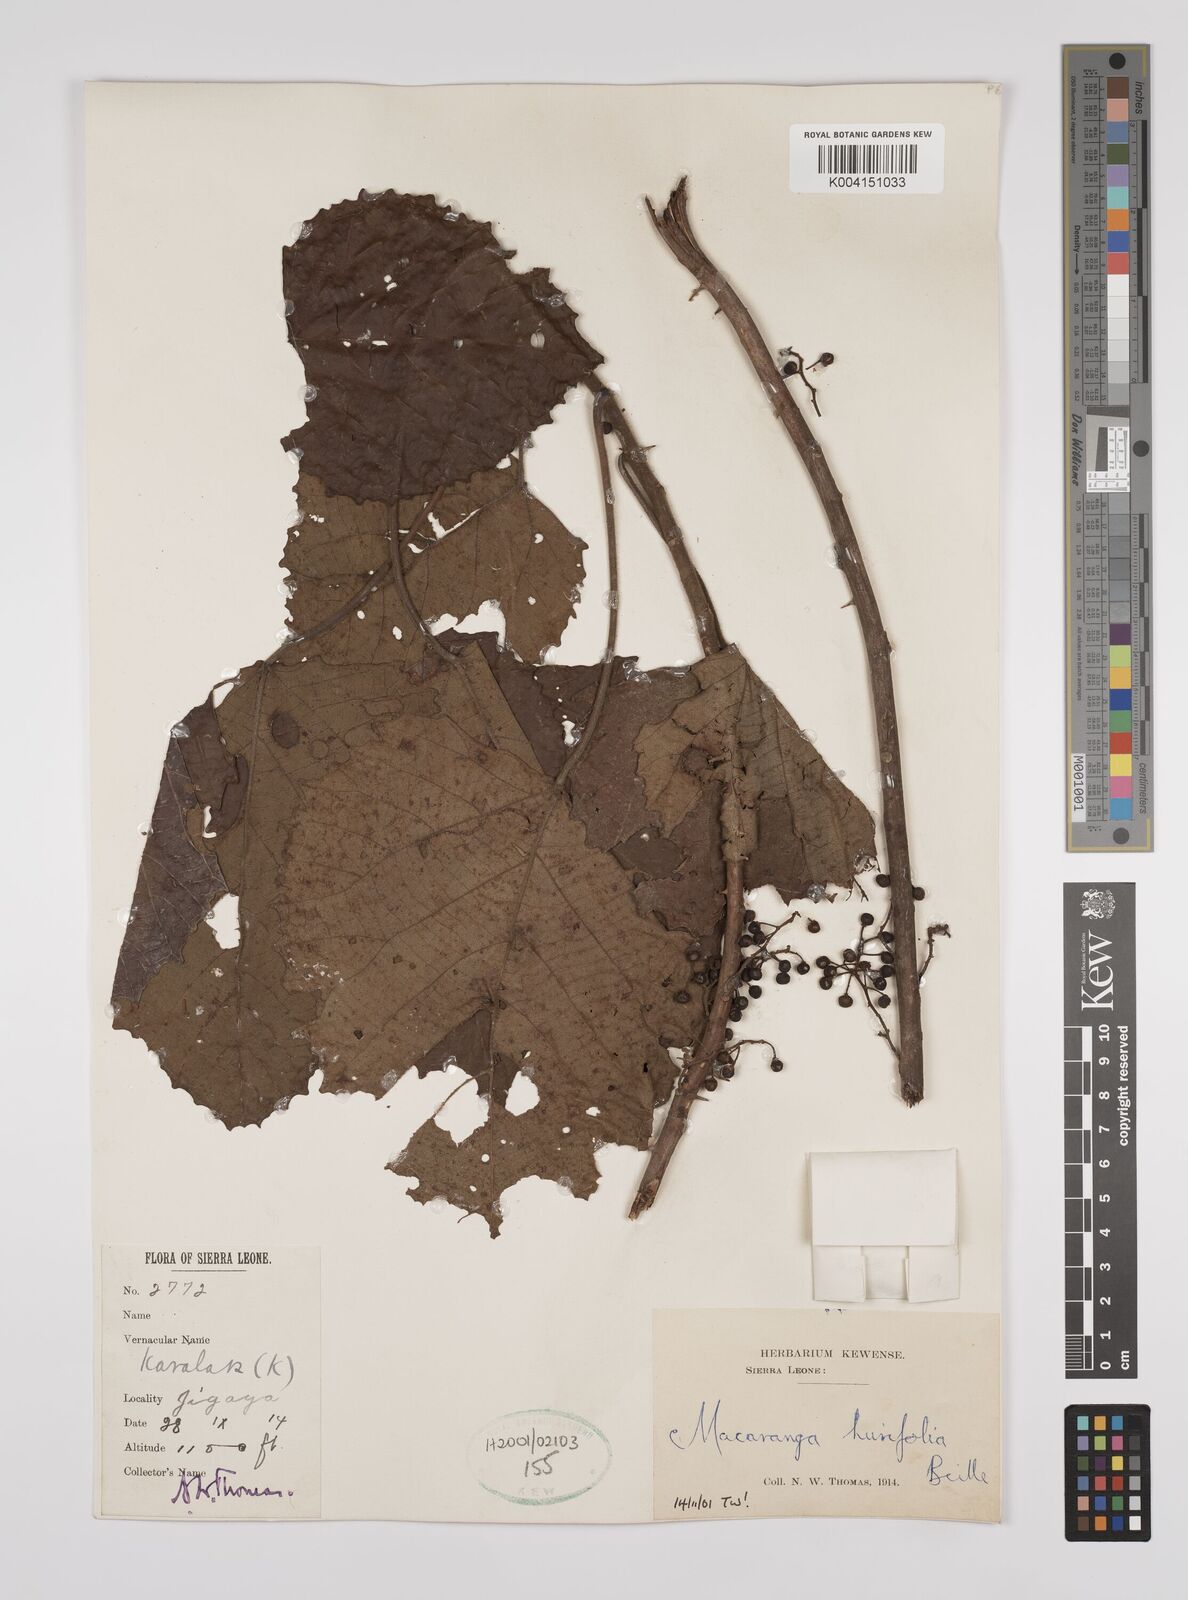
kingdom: Plantae
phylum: Tracheophyta
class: Magnoliopsida
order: Malpighiales
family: Euphorbiaceae
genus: Macaranga
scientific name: Macaranga hurifolia
